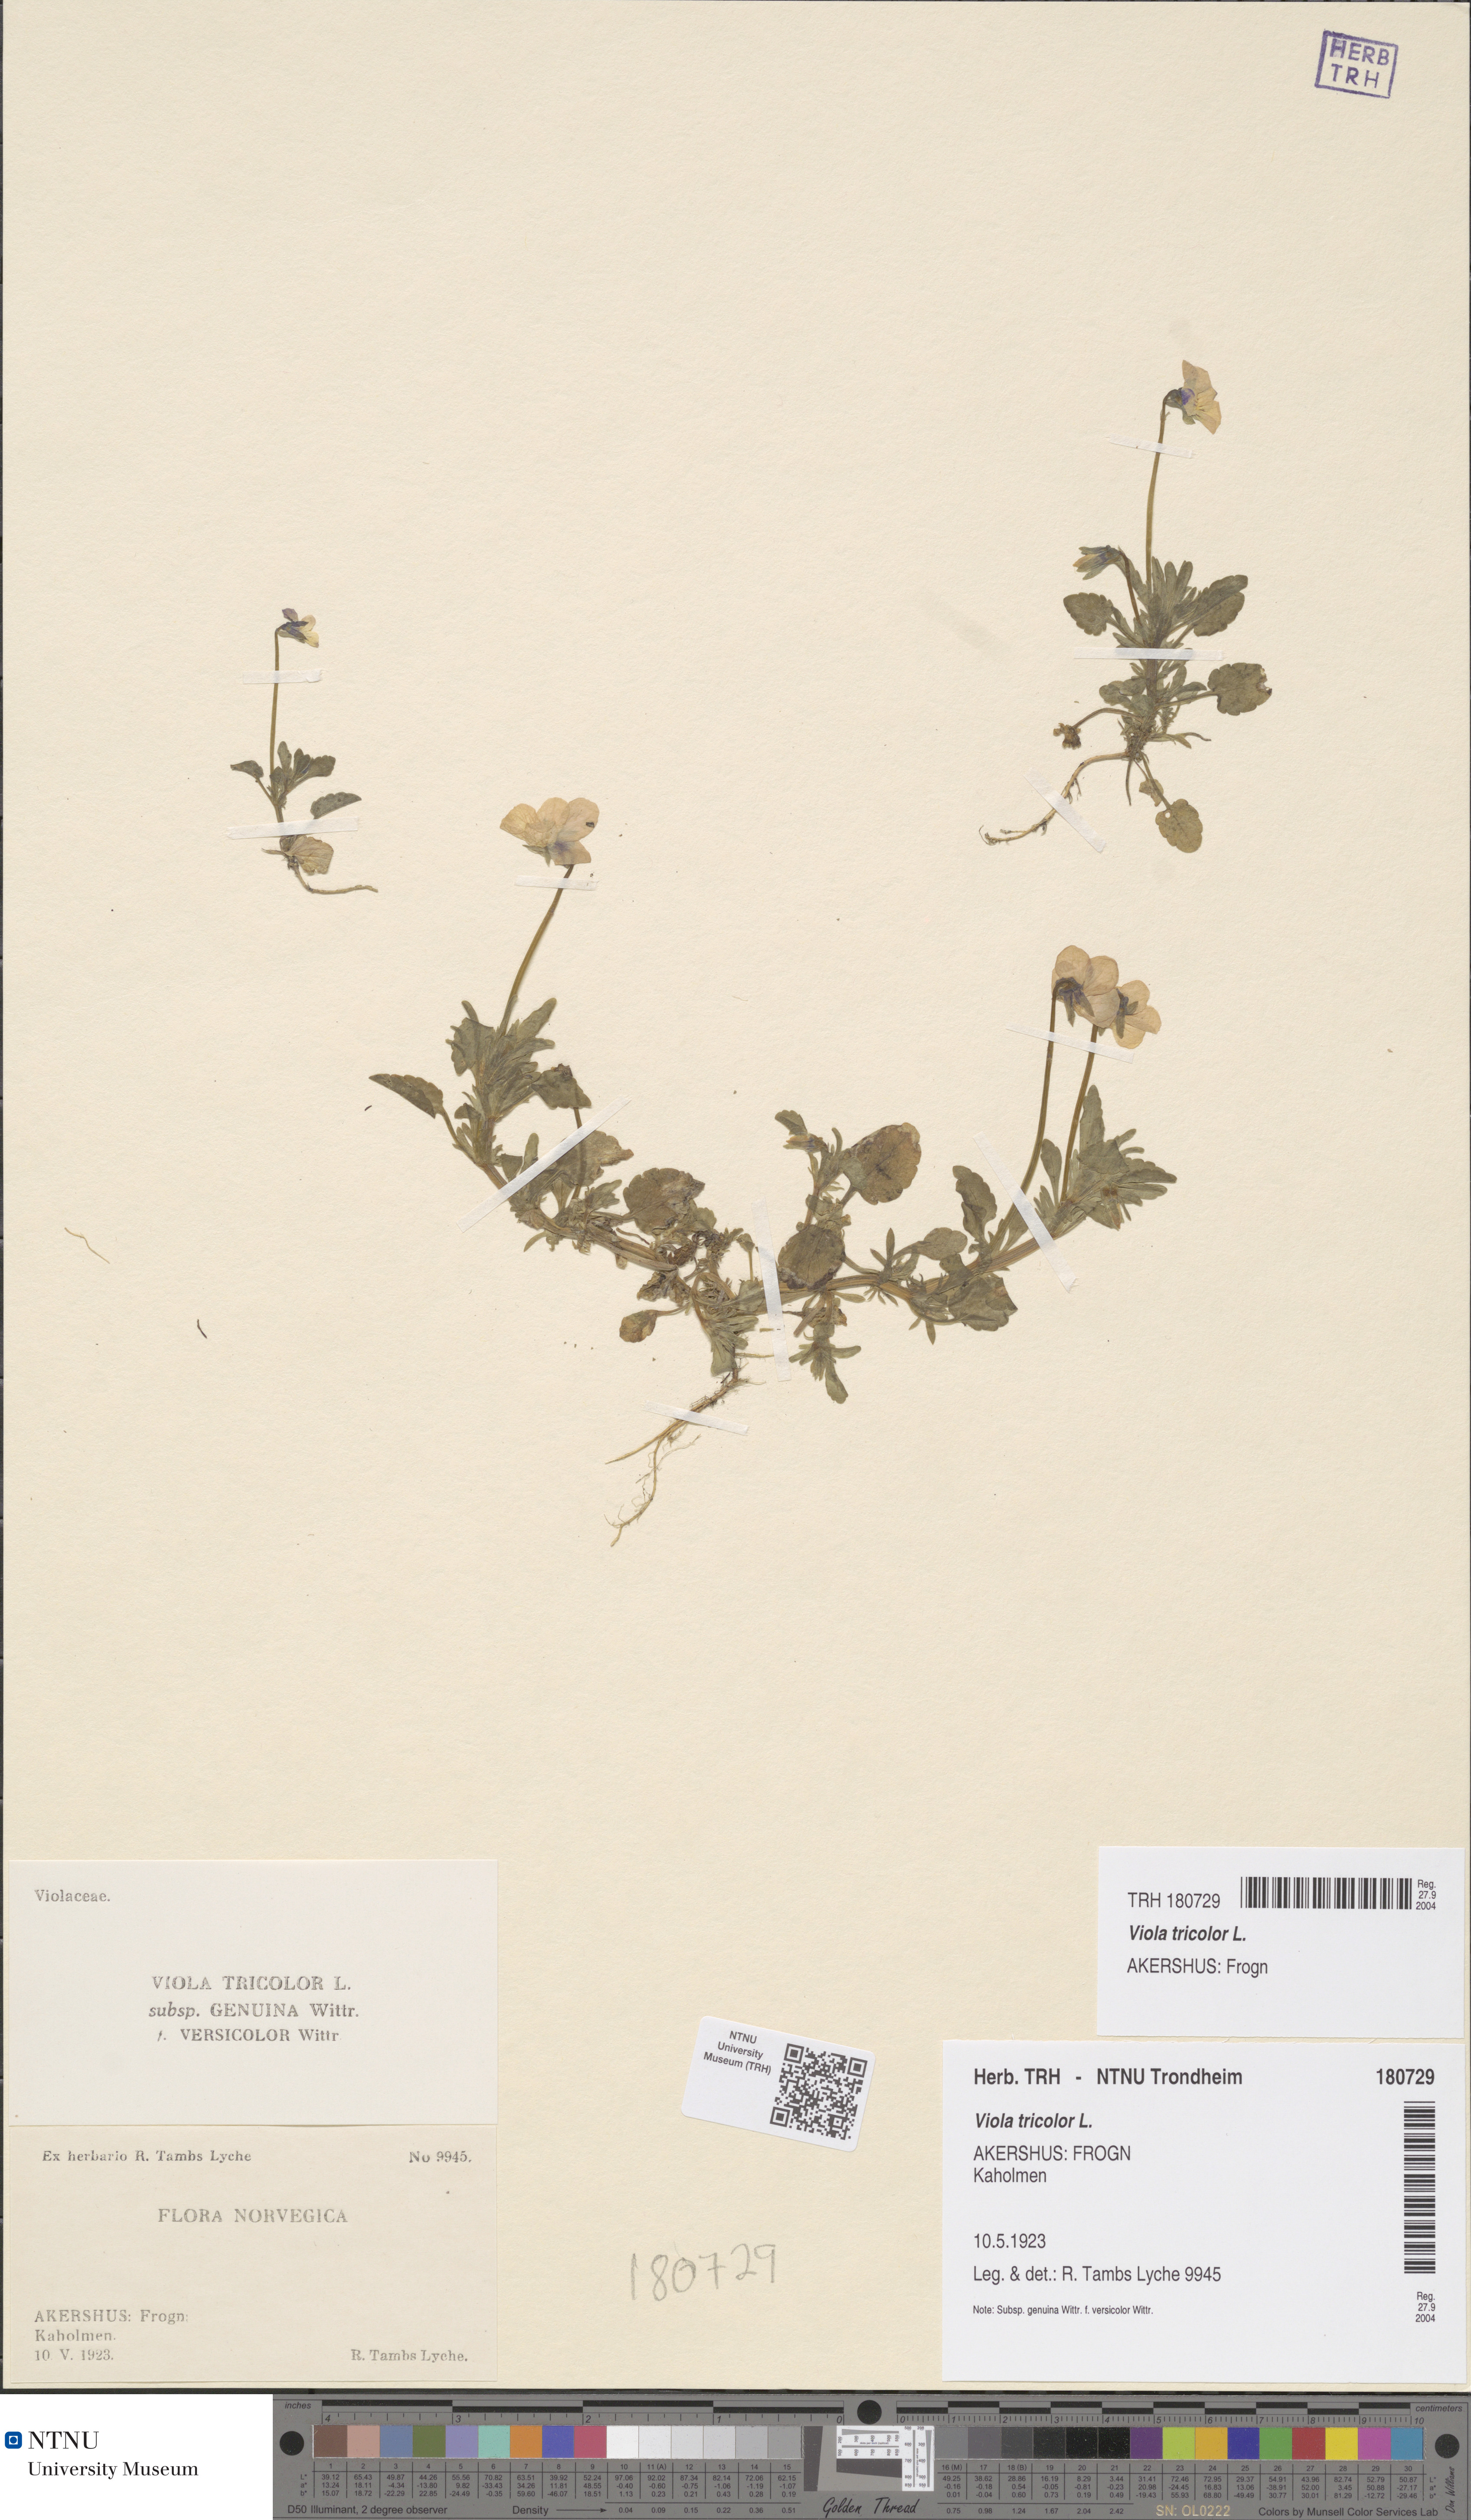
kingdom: Plantae
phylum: Tracheophyta
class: Magnoliopsida
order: Malpighiales
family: Violaceae
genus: Viola
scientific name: Viola tricolor
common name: Pansy
